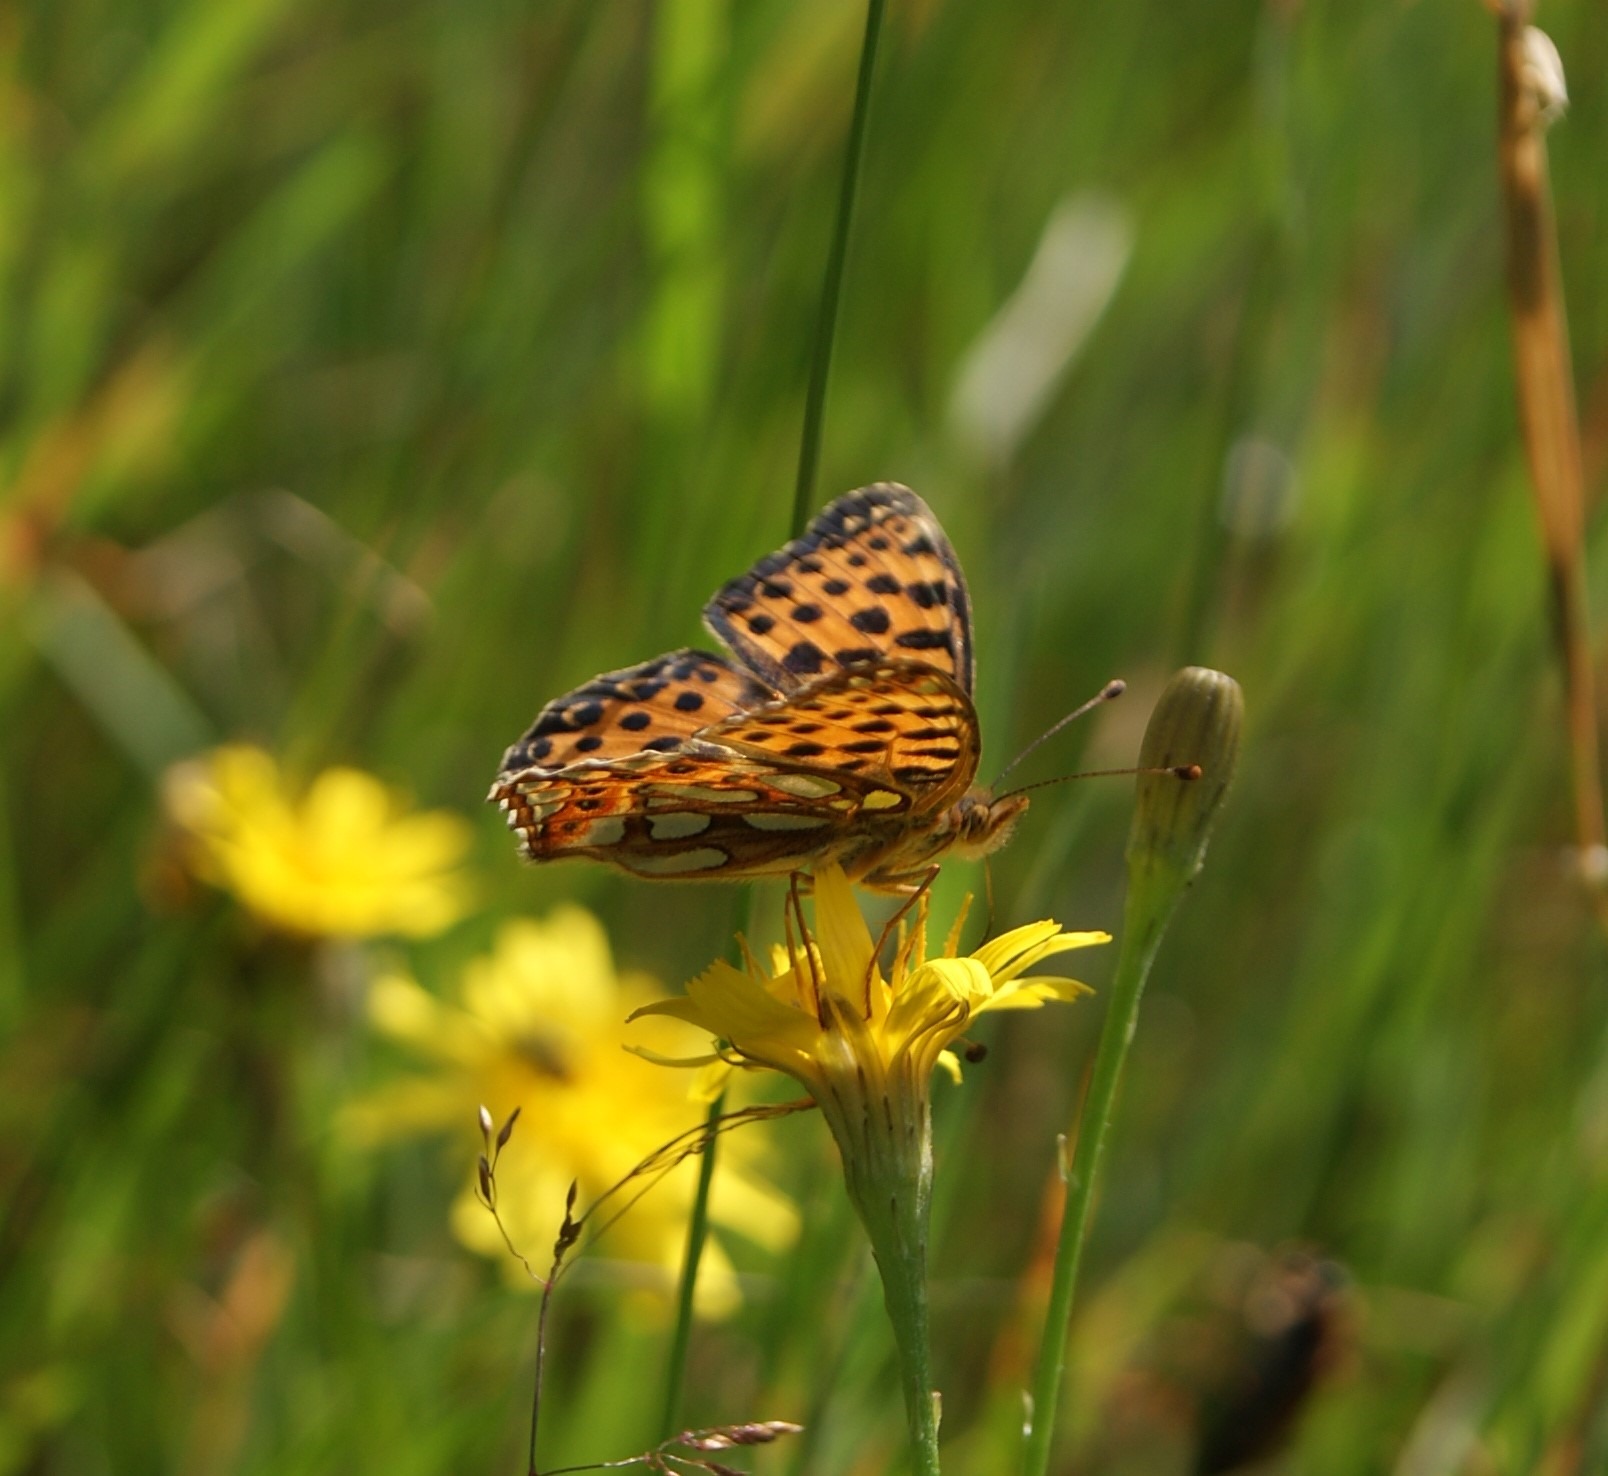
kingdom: Animalia
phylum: Arthropoda
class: Insecta
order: Lepidoptera
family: Nymphalidae
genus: Issoria
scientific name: Issoria lathonia
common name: Storplettet perlemorsommerfugl
